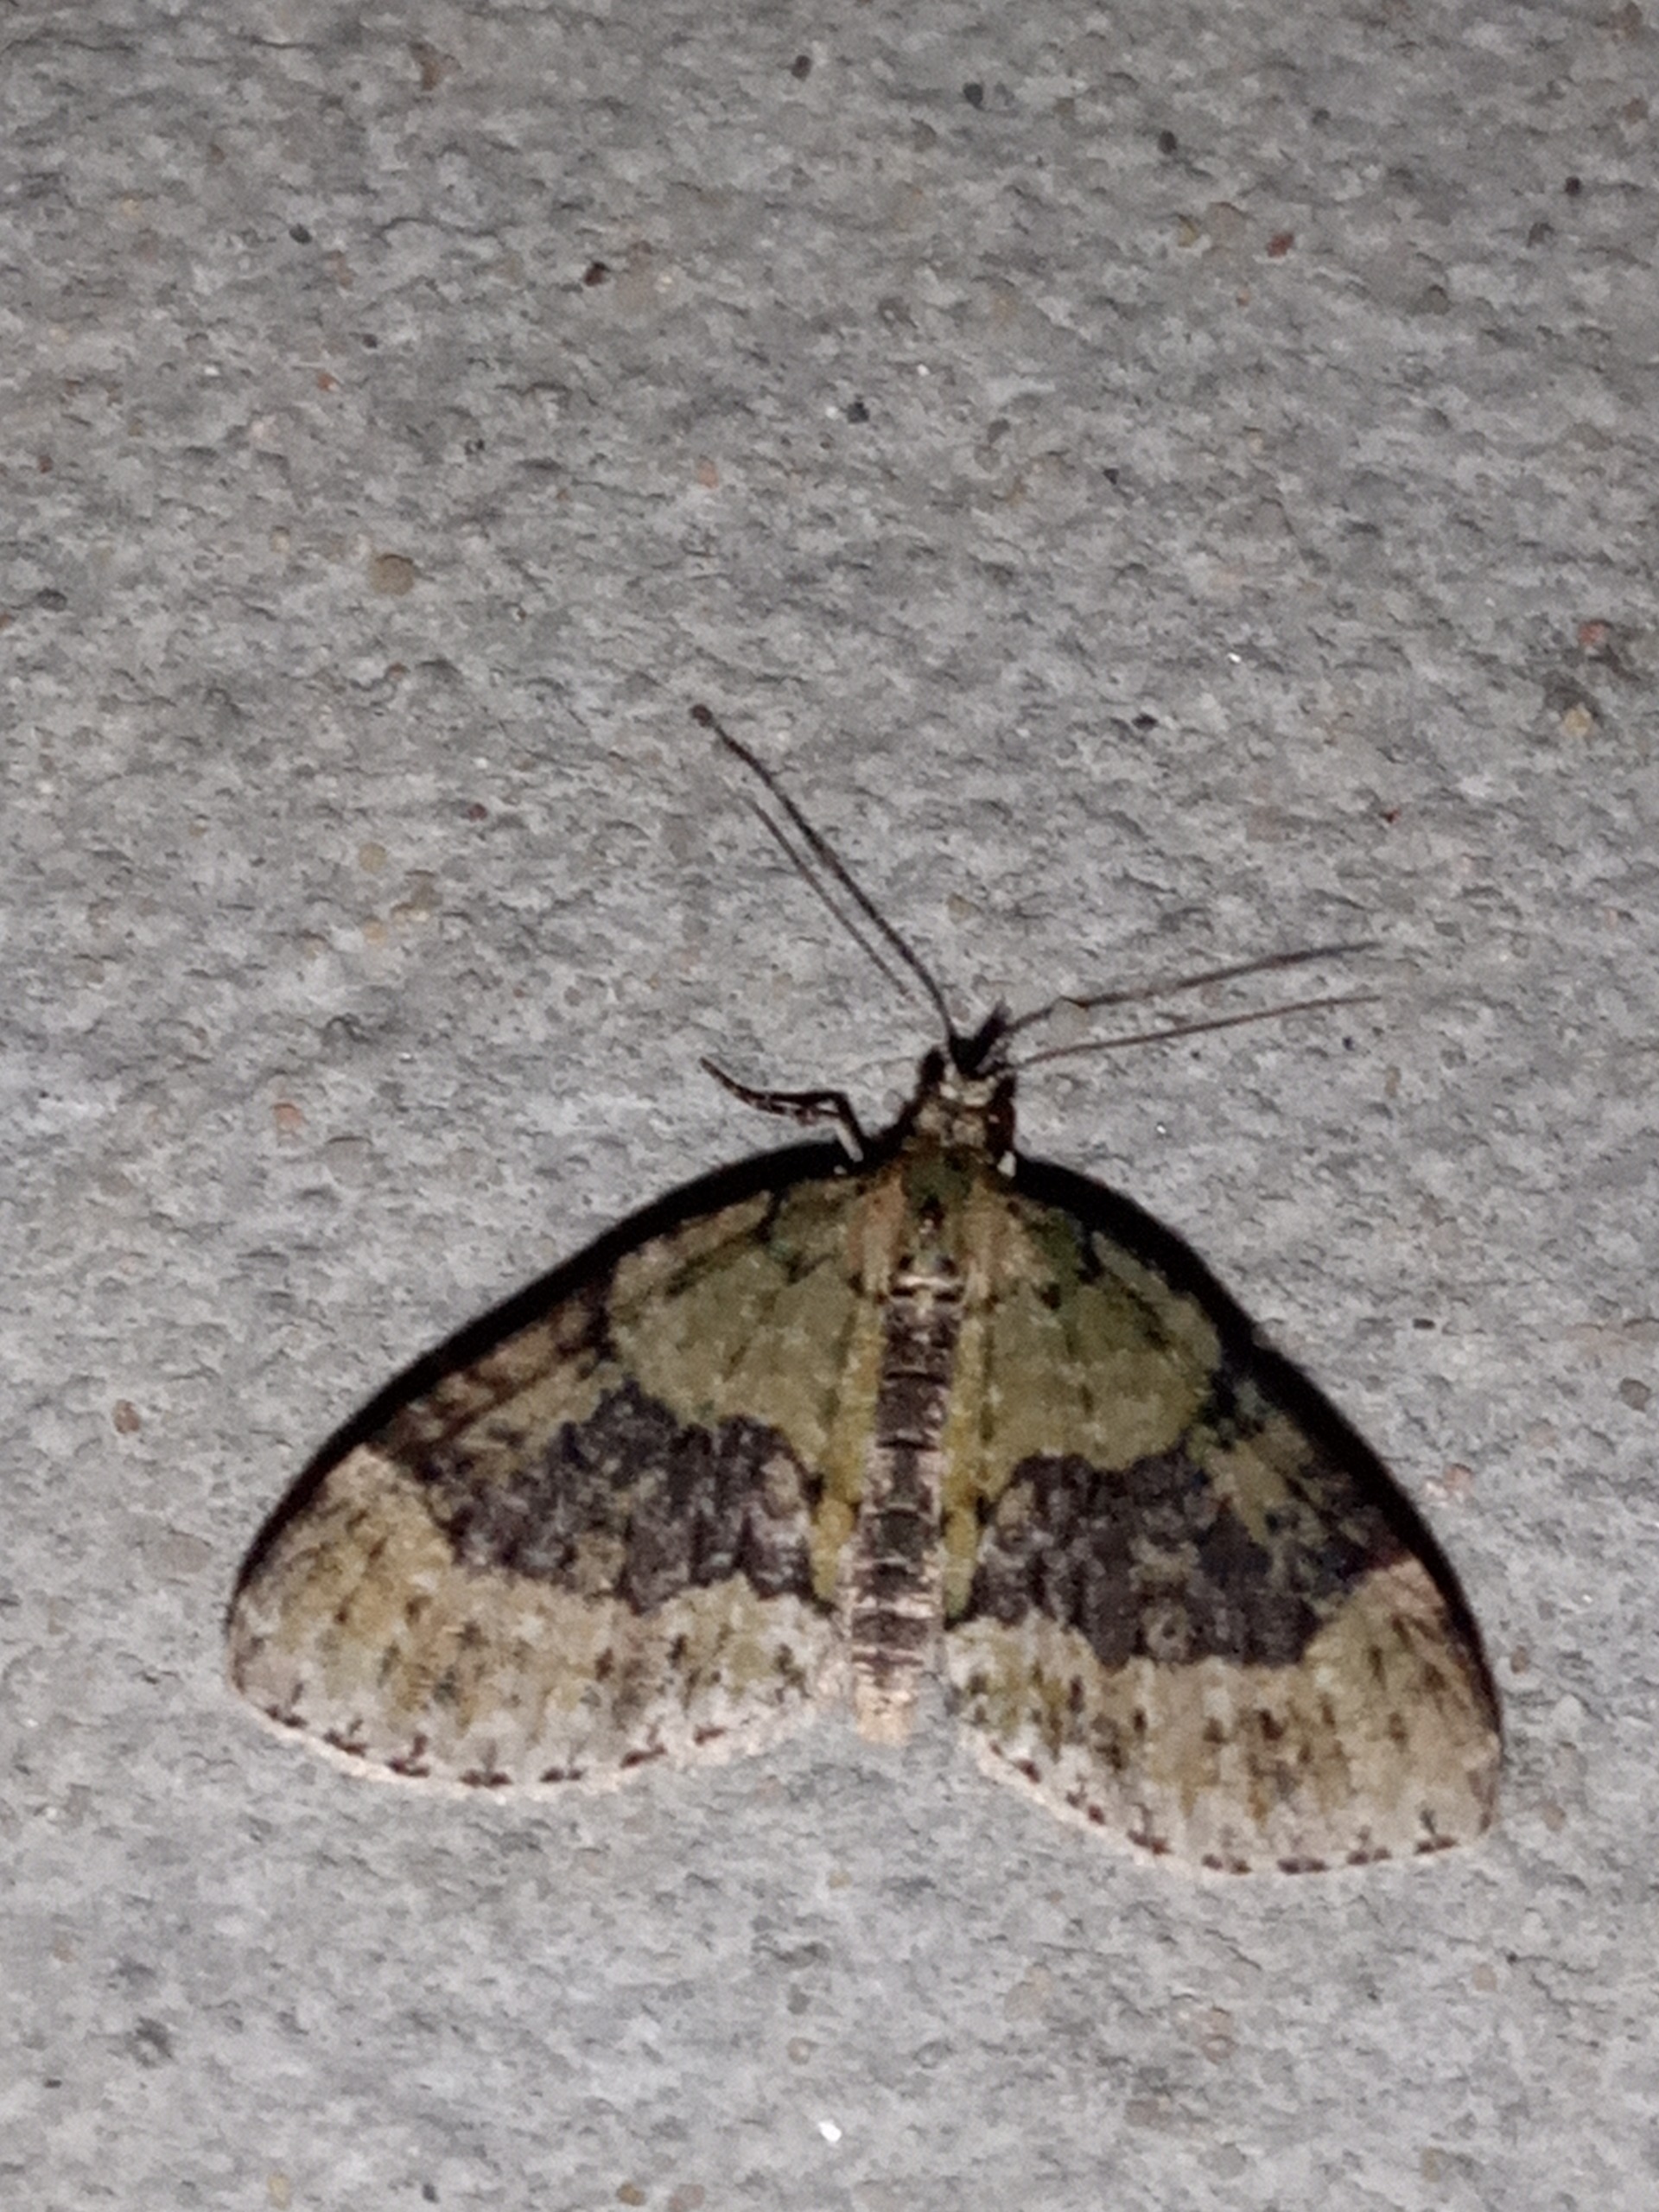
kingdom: Animalia
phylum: Arthropoda
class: Insecta
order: Lepidoptera
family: Geometridae
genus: Acasis
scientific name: Acasis viretata
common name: Tørstetræblomstmåler
